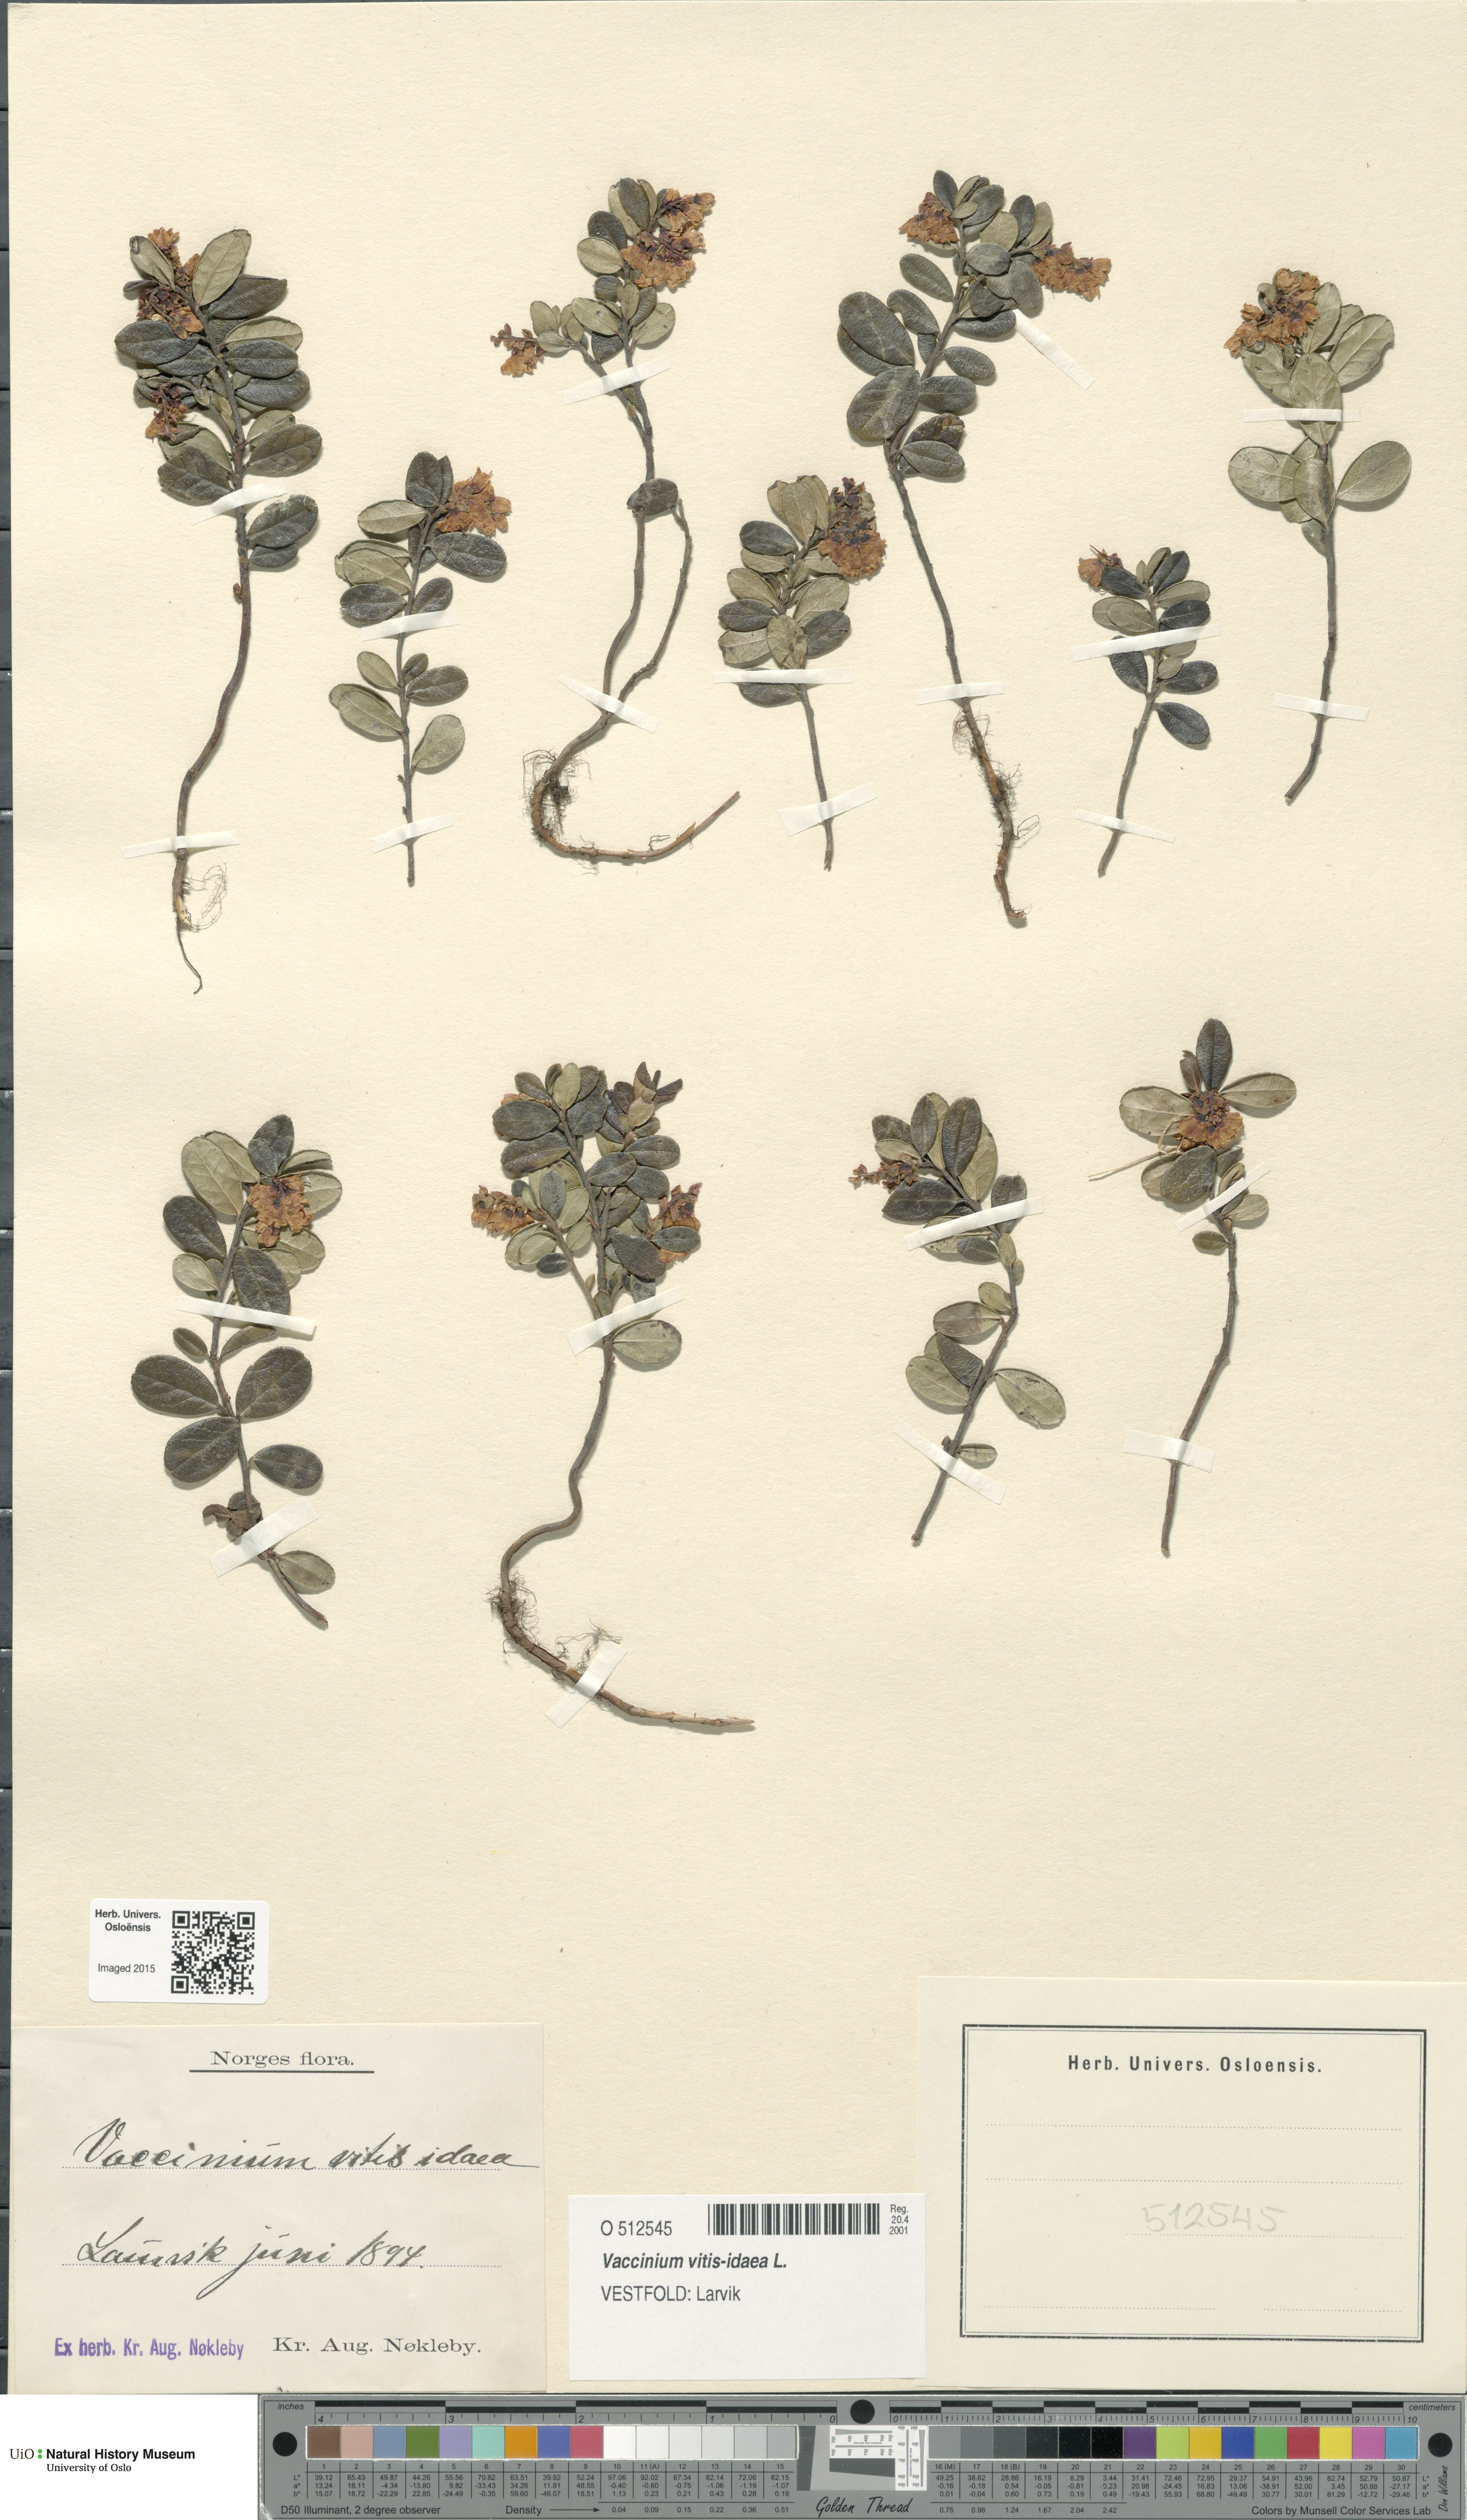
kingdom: Plantae
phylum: Tracheophyta
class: Magnoliopsida
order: Ericales
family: Ericaceae
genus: Vaccinium
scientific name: Vaccinium vitis-idaea
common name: Cowberry
